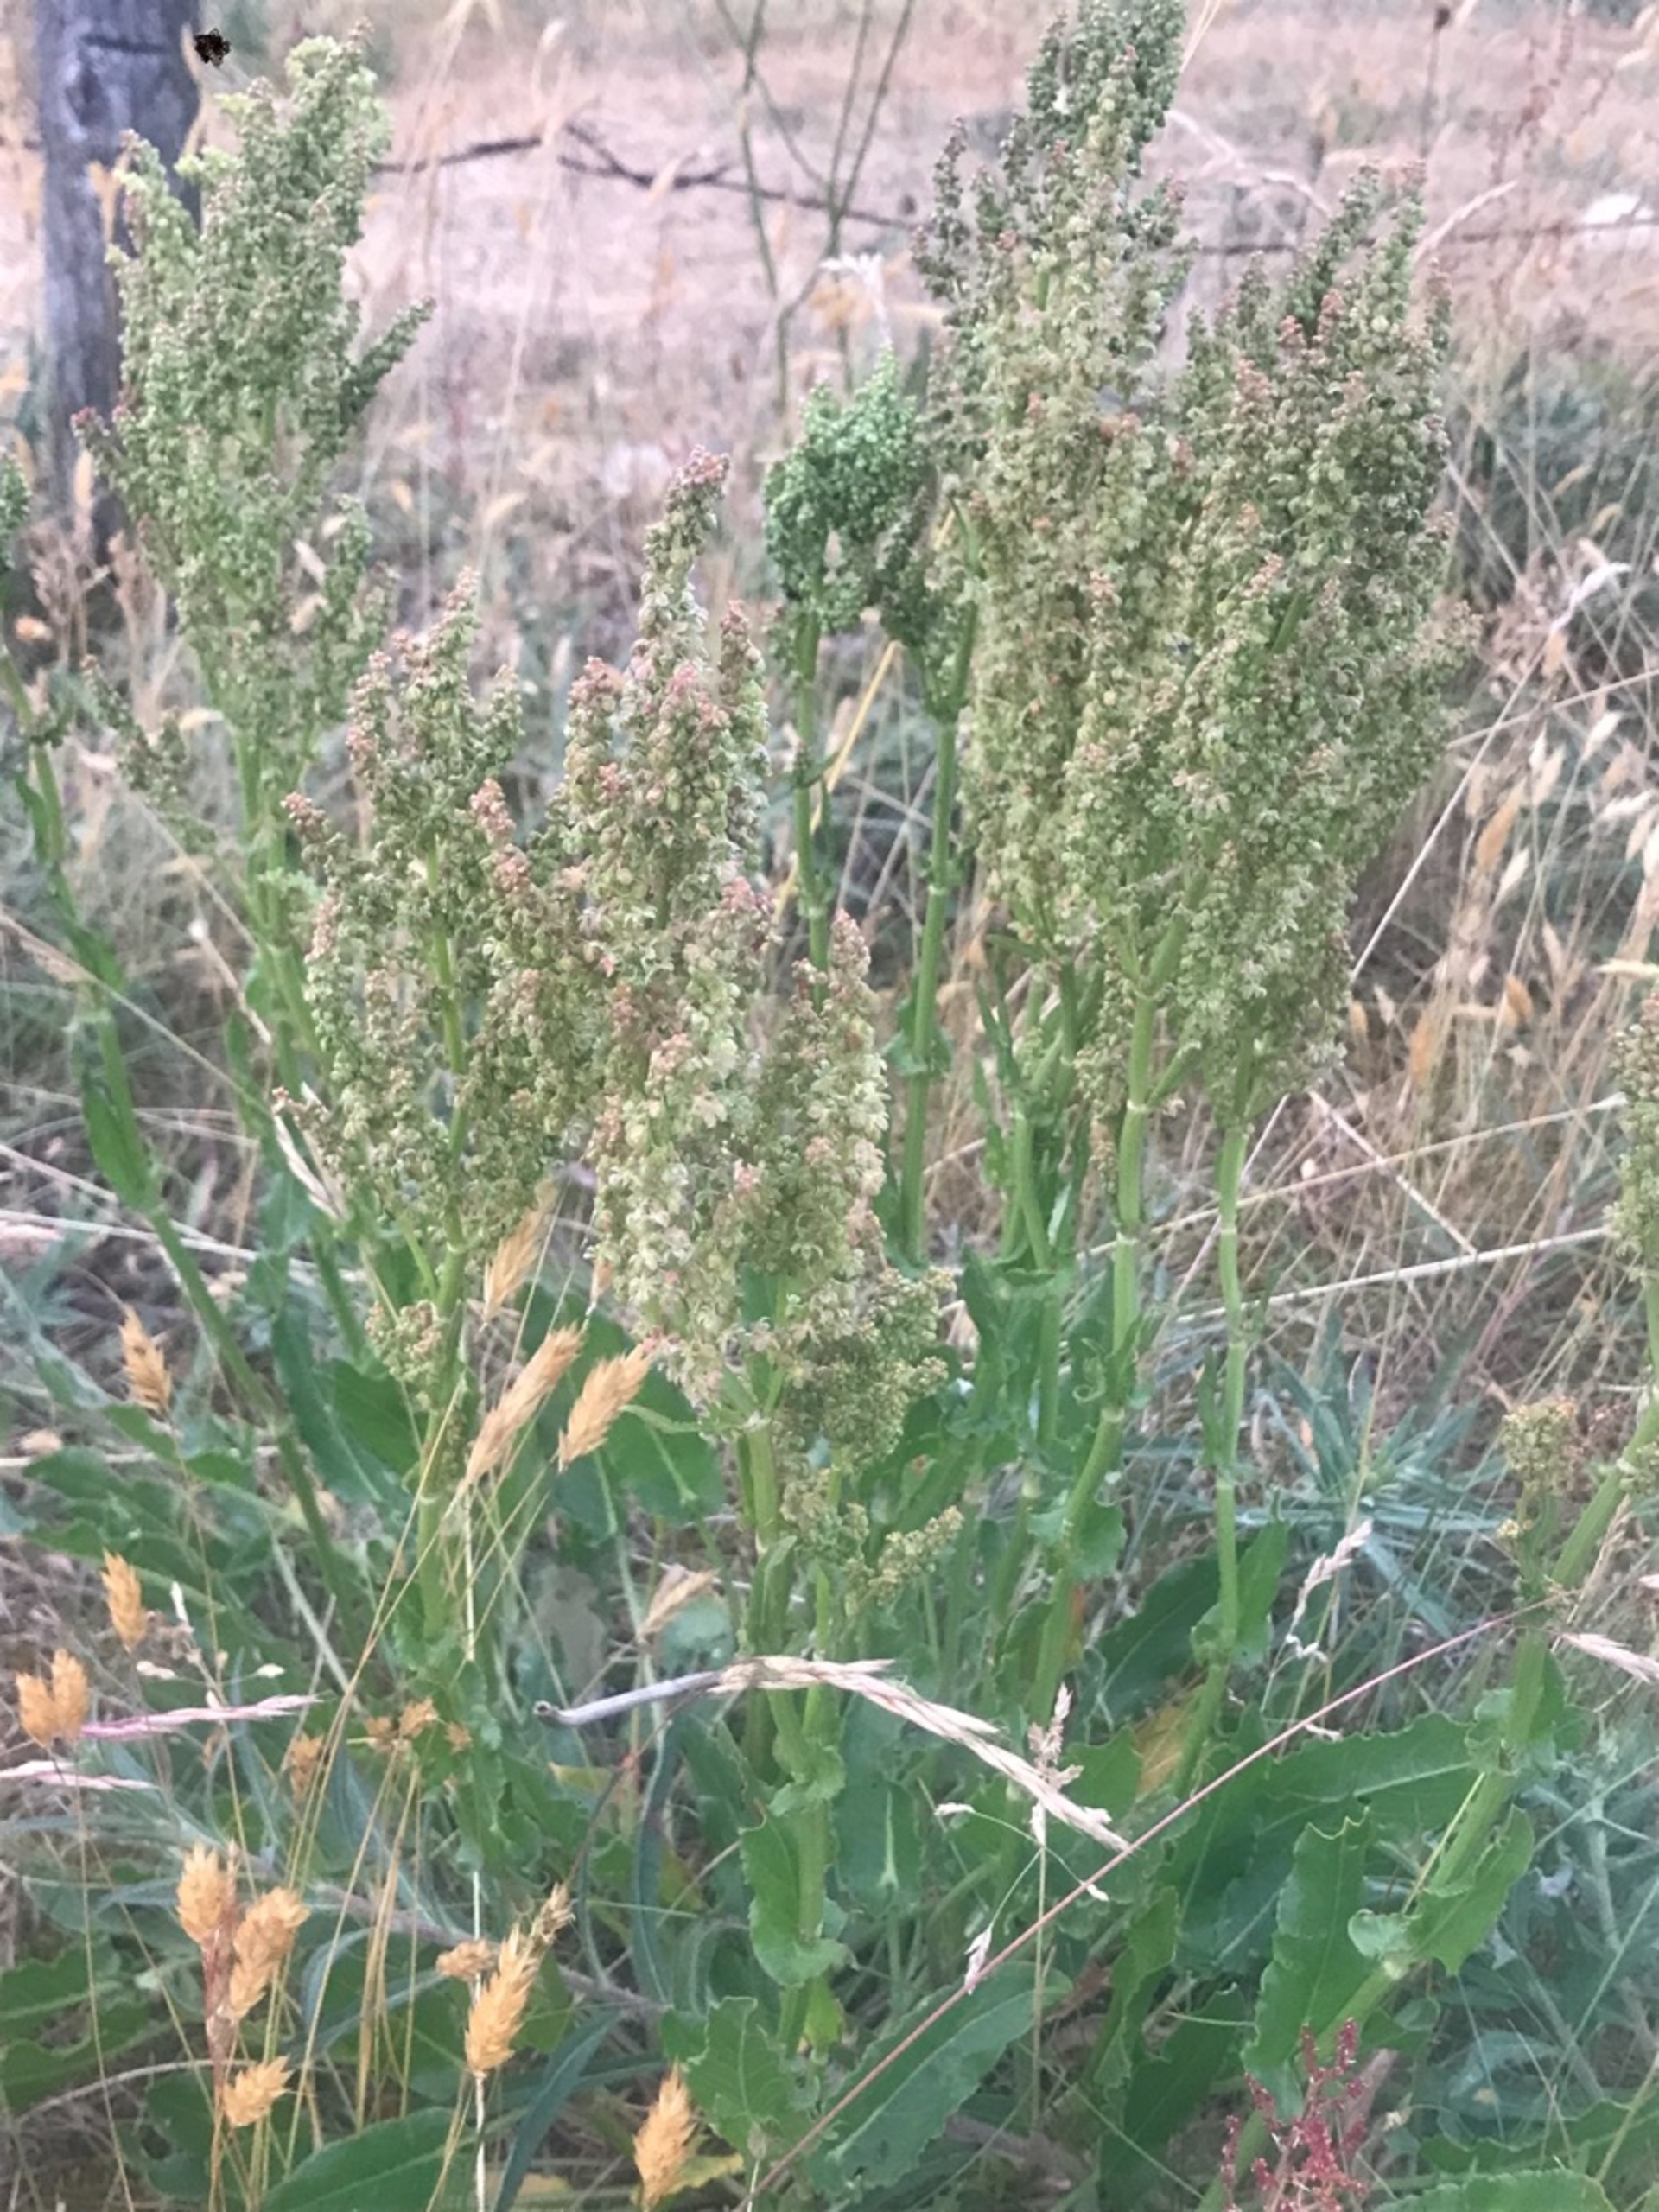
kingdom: Plantae
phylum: Tracheophyta
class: Magnoliopsida
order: Caryophyllales
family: Polygonaceae
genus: Rumex
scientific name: Rumex thyrsiflorus
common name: Dusk-syre
